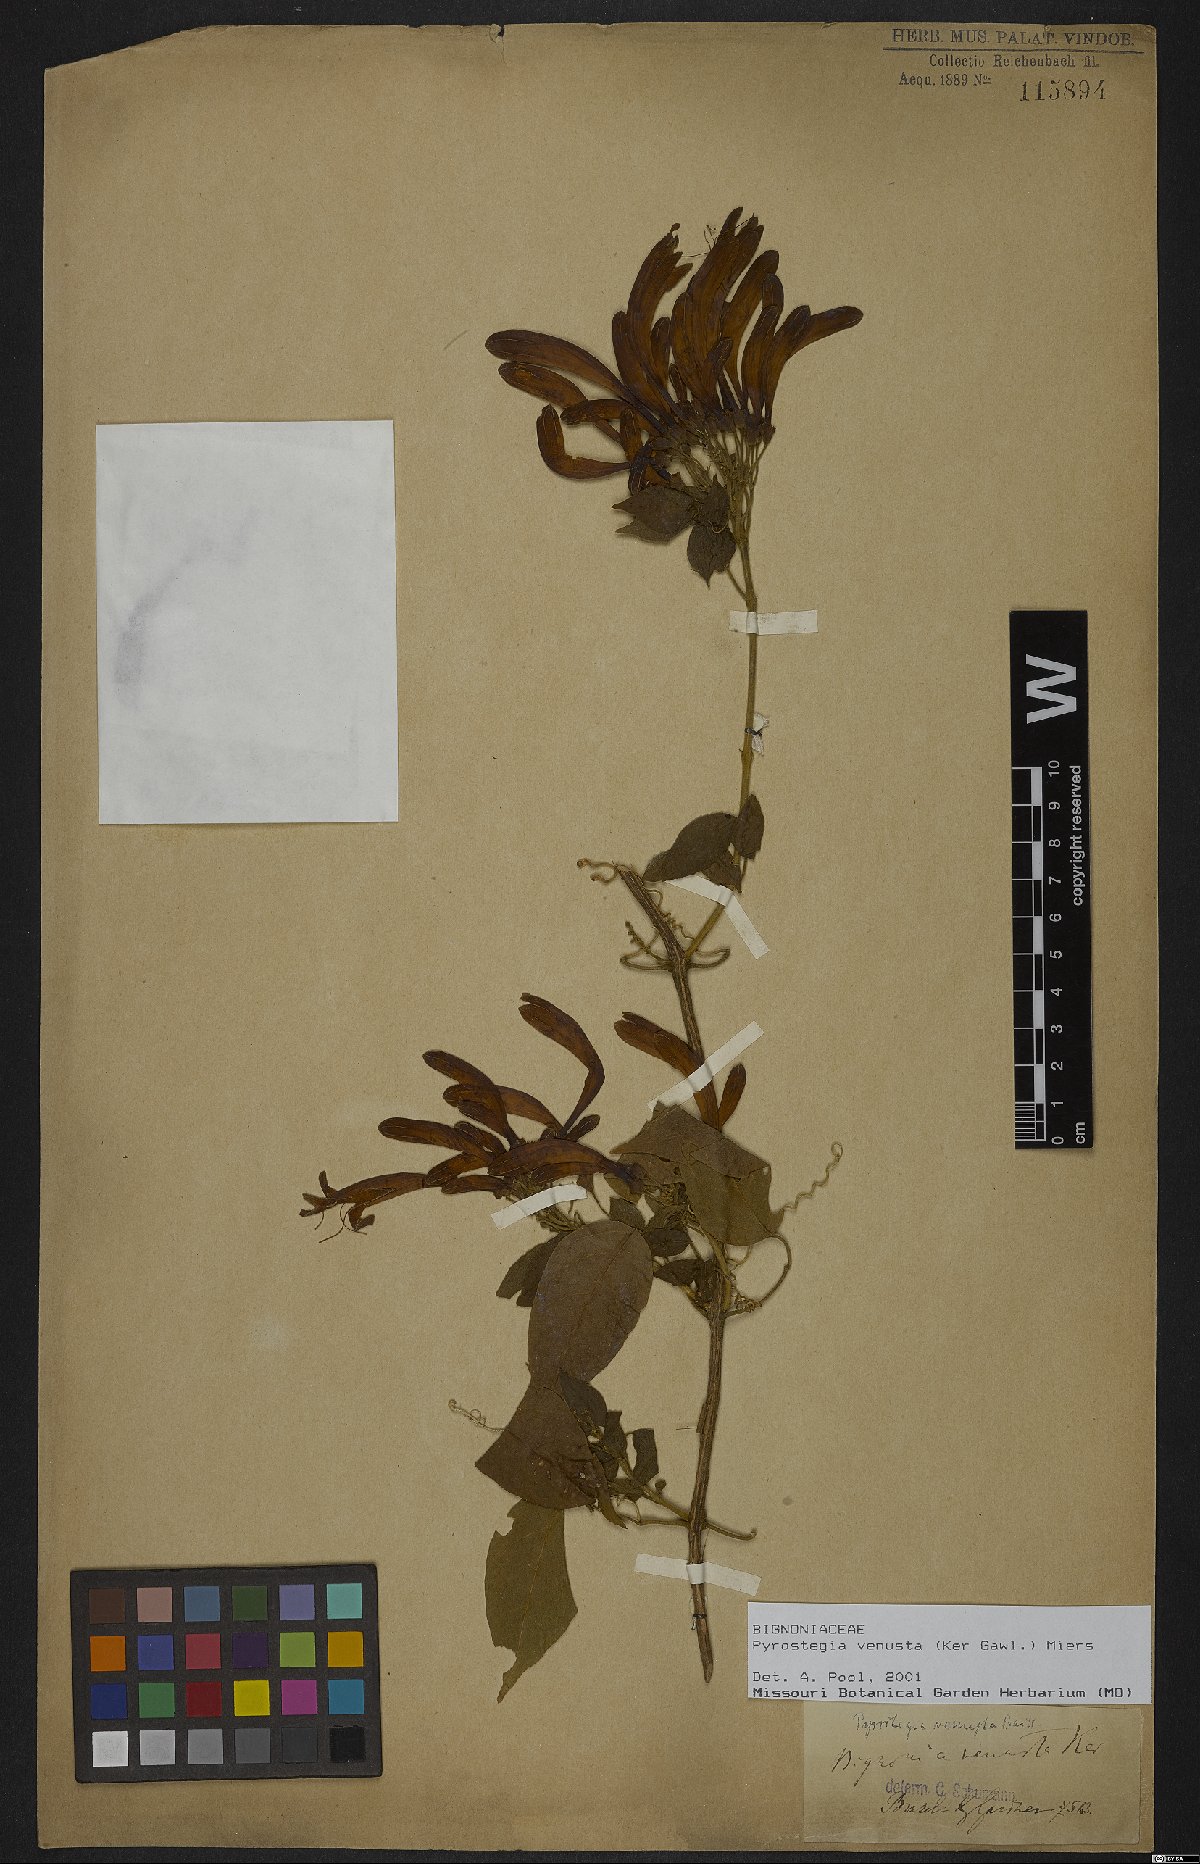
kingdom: Plantae
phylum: Tracheophyta
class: Magnoliopsida
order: Lamiales
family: Bignoniaceae
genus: Pyrostegia
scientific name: Pyrostegia venusta
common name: Flamevine
